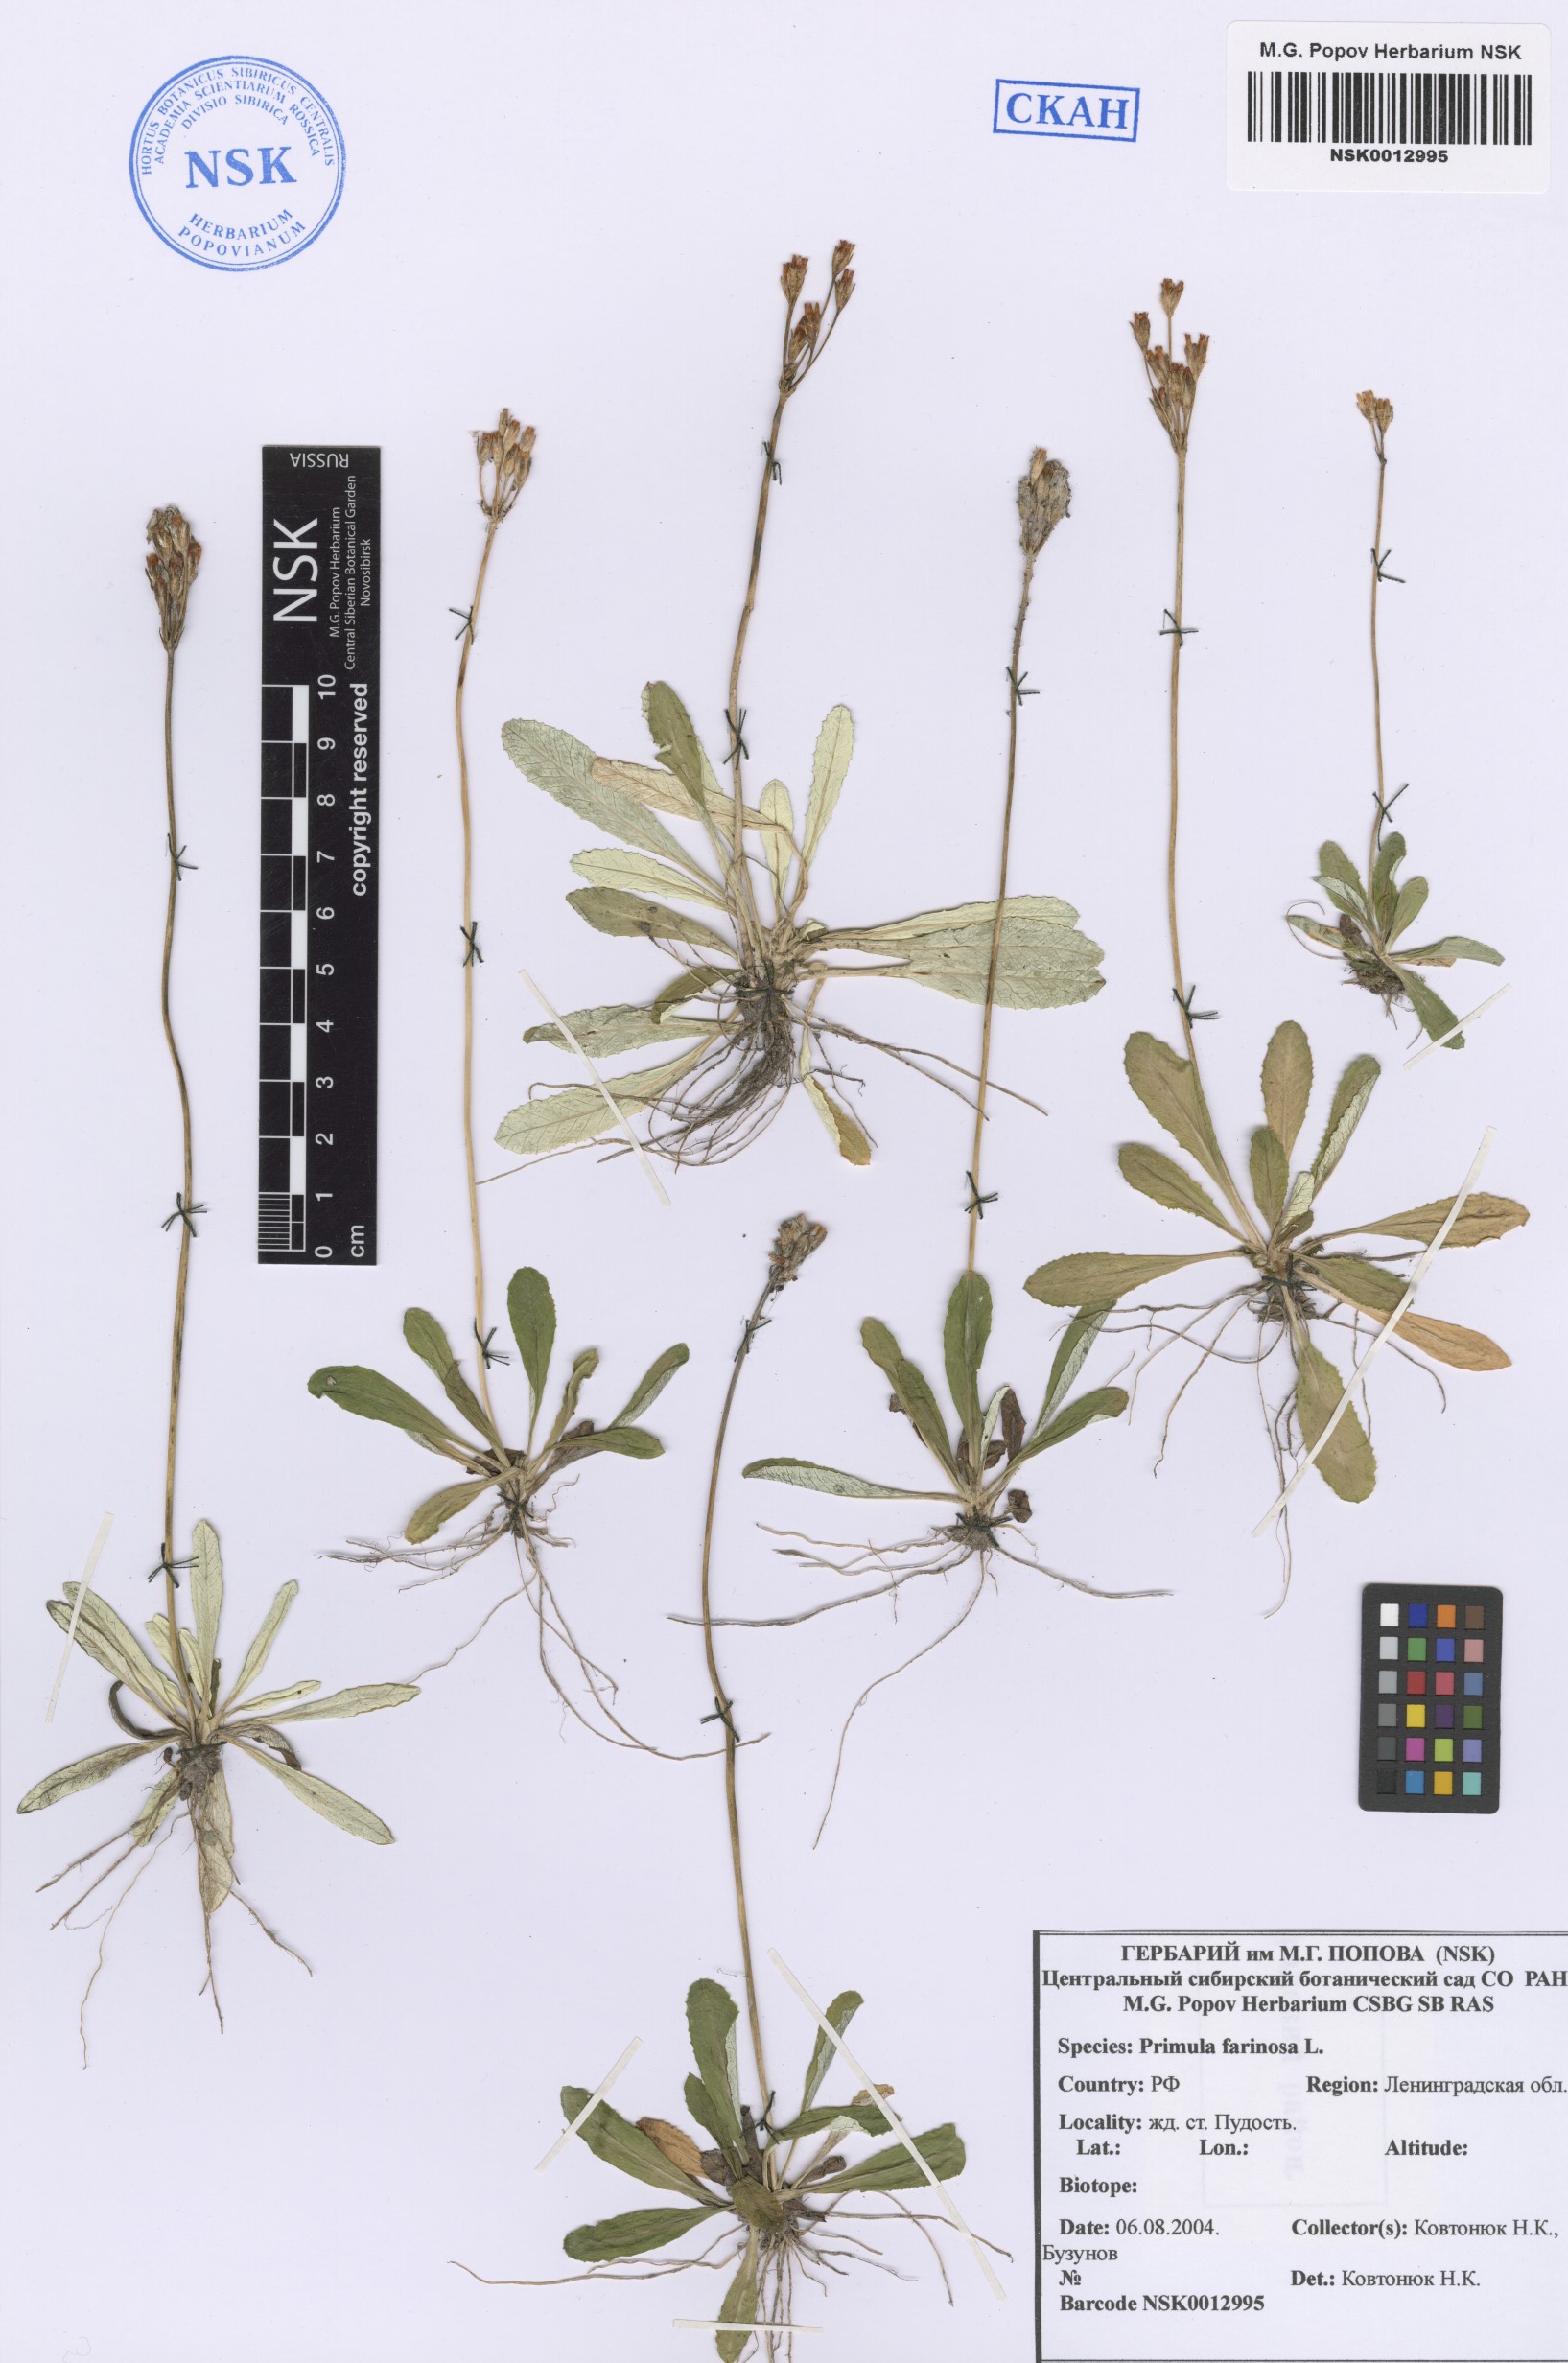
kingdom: Plantae
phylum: Tracheophyta
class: Magnoliopsida
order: Ericales
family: Primulaceae
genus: Primula
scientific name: Primula farinosa
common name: Bird's-eye primrose
